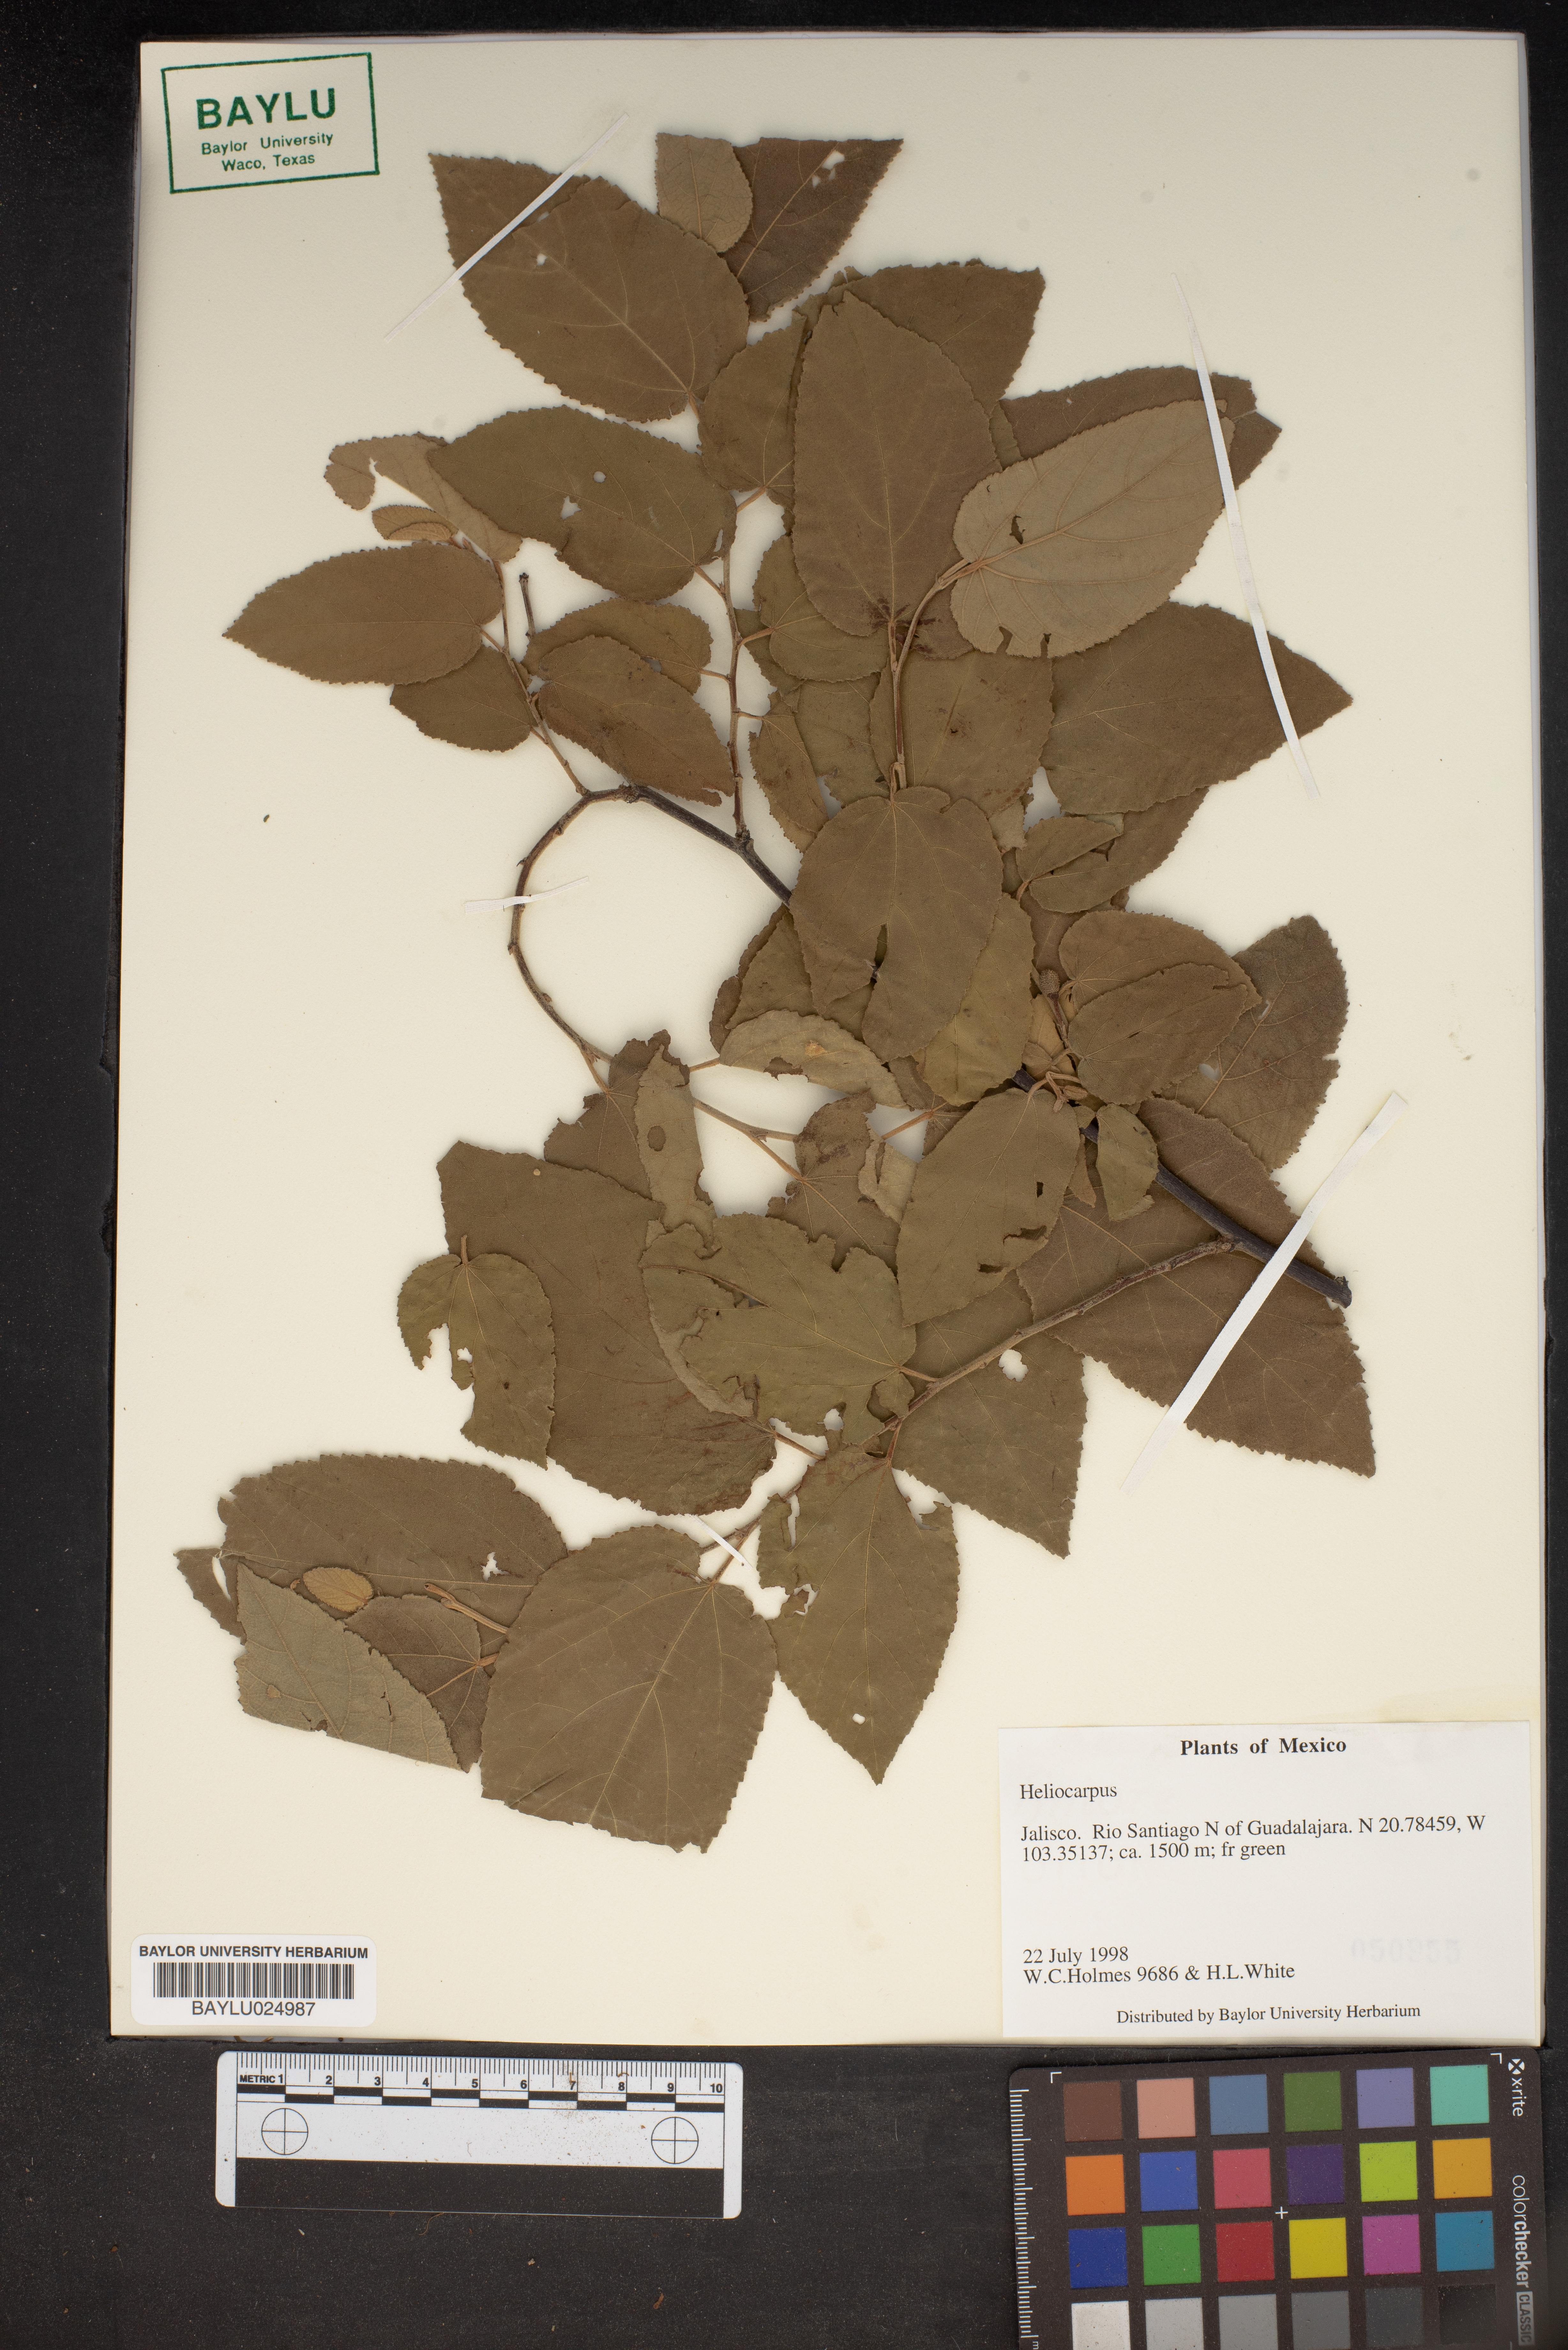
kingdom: Plantae
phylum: Tracheophyta
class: Magnoliopsida
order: Malvales
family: Malvaceae
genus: Heliocarpus
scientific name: Heliocarpus
